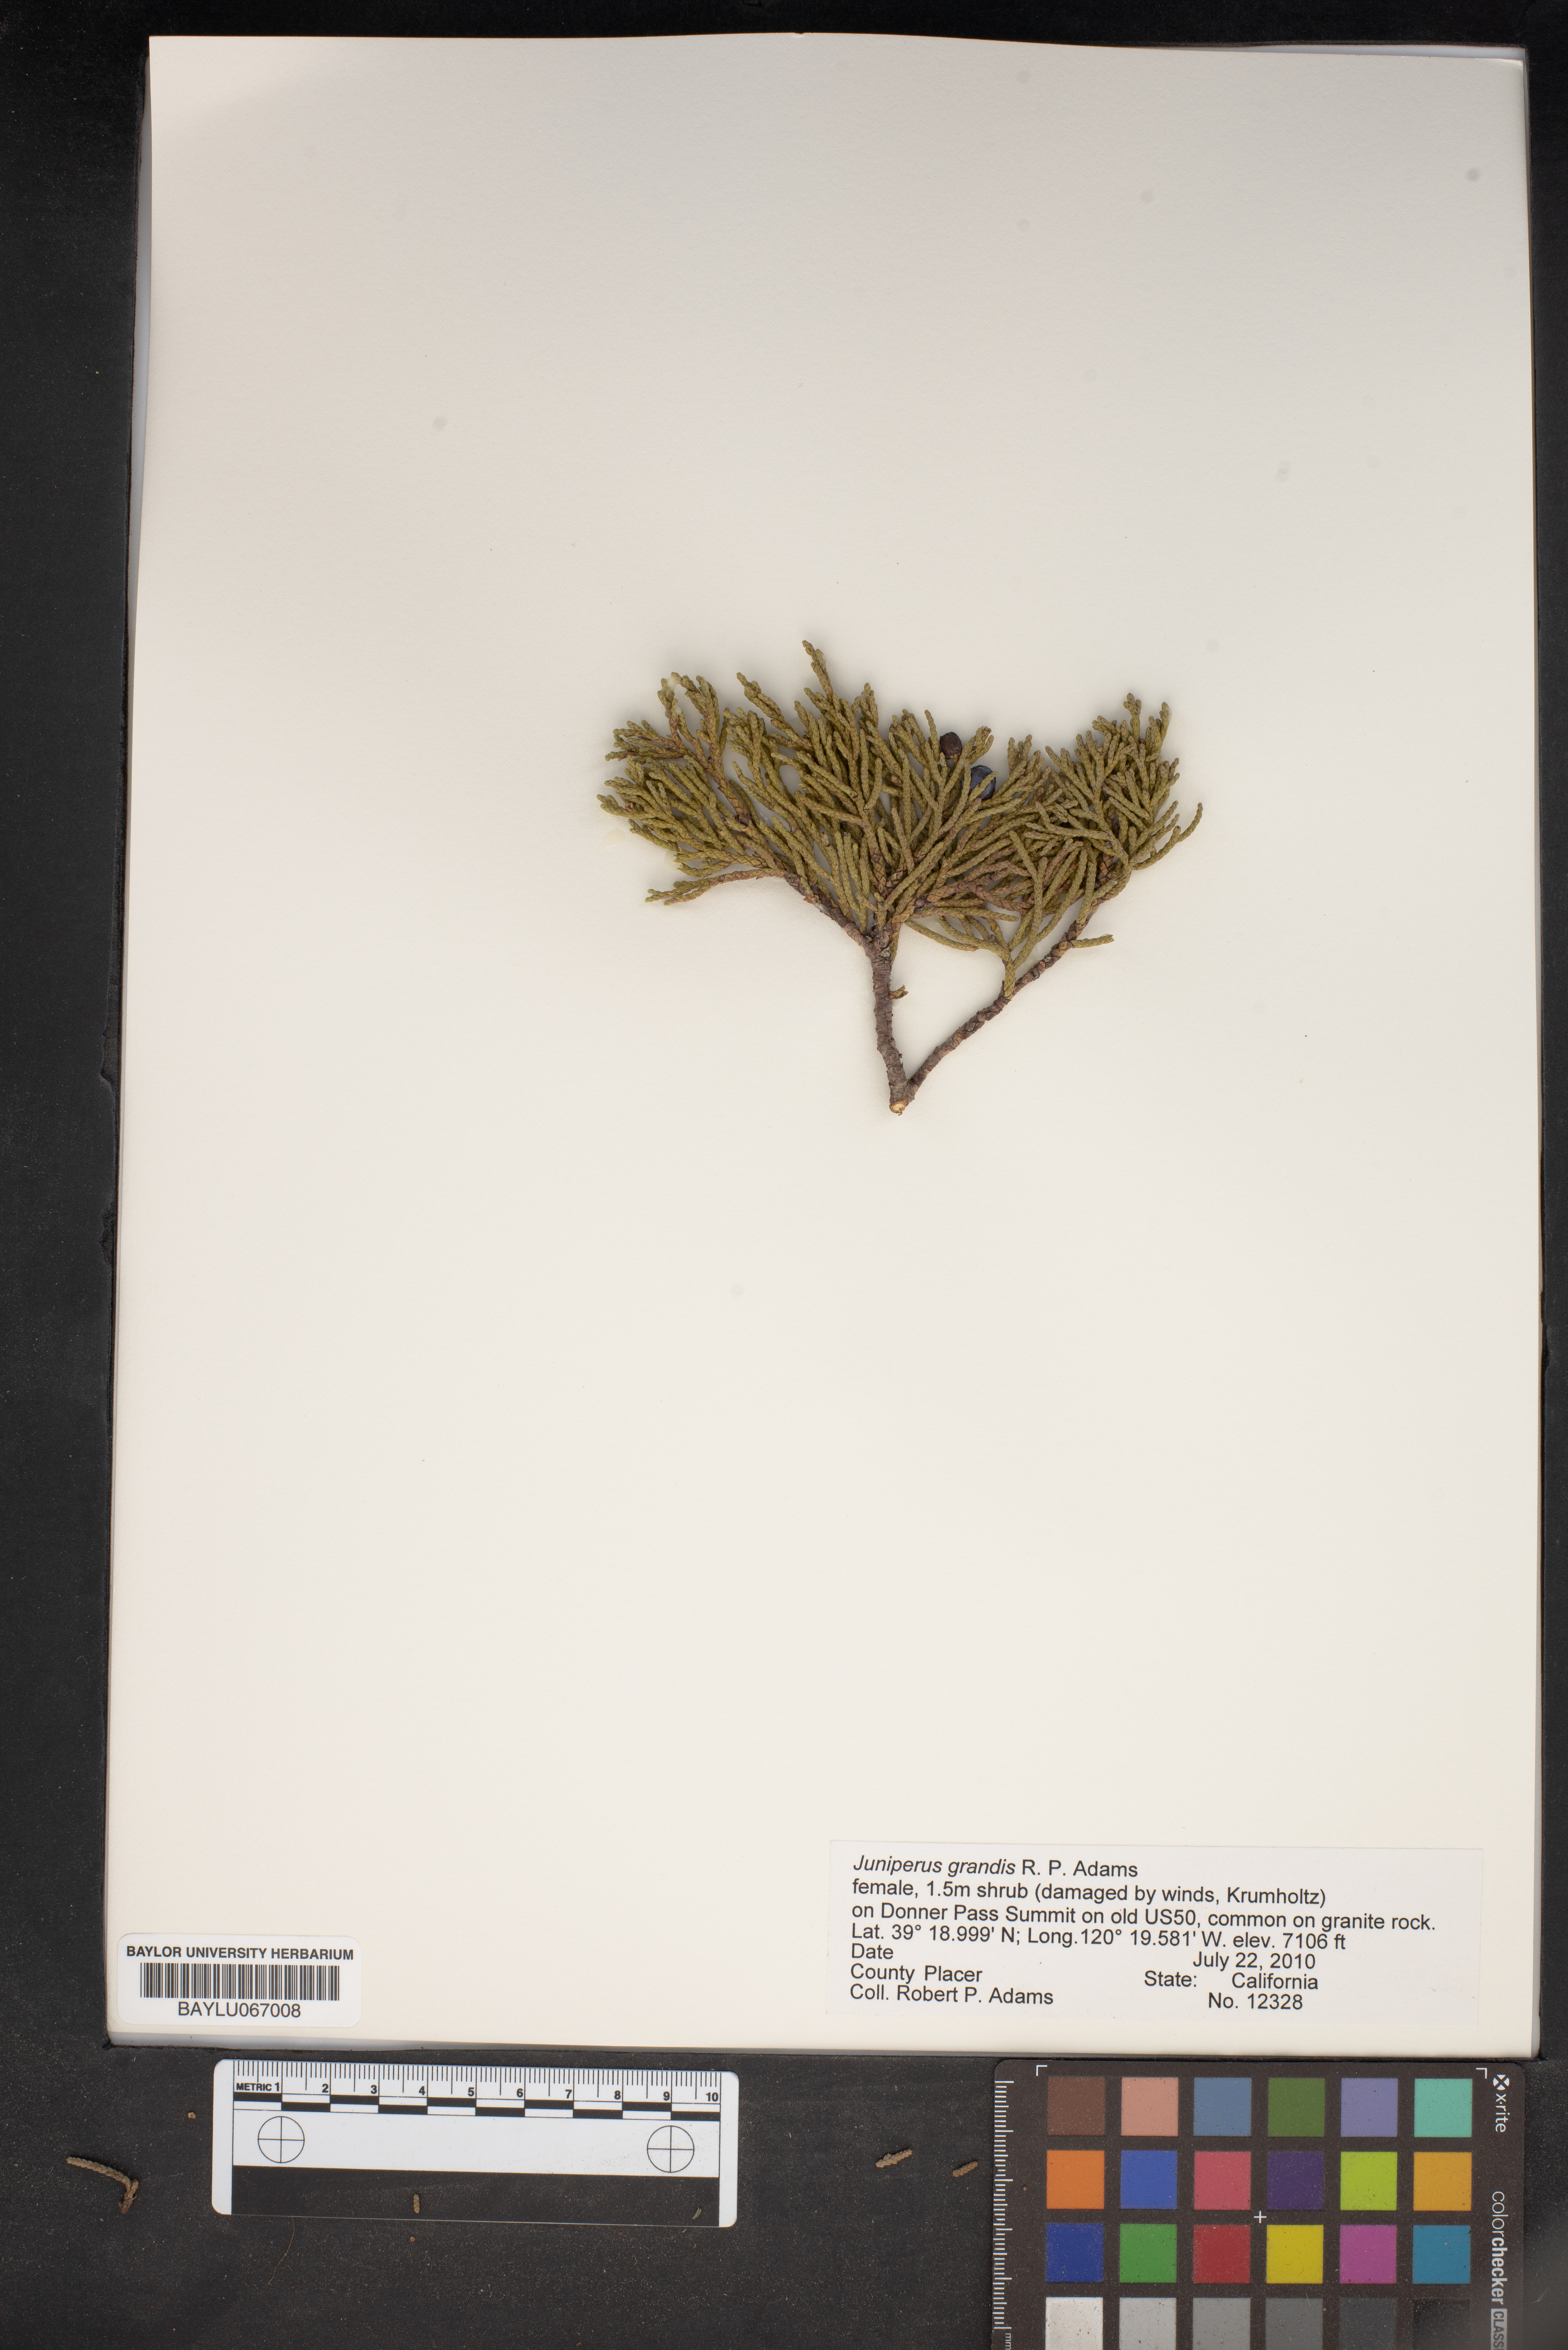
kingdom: Plantae
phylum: Tracheophyta
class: Pinopsida
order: Pinales
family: Cupressaceae
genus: Juniperus
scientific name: Juniperus occidentalis
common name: Western juniper
